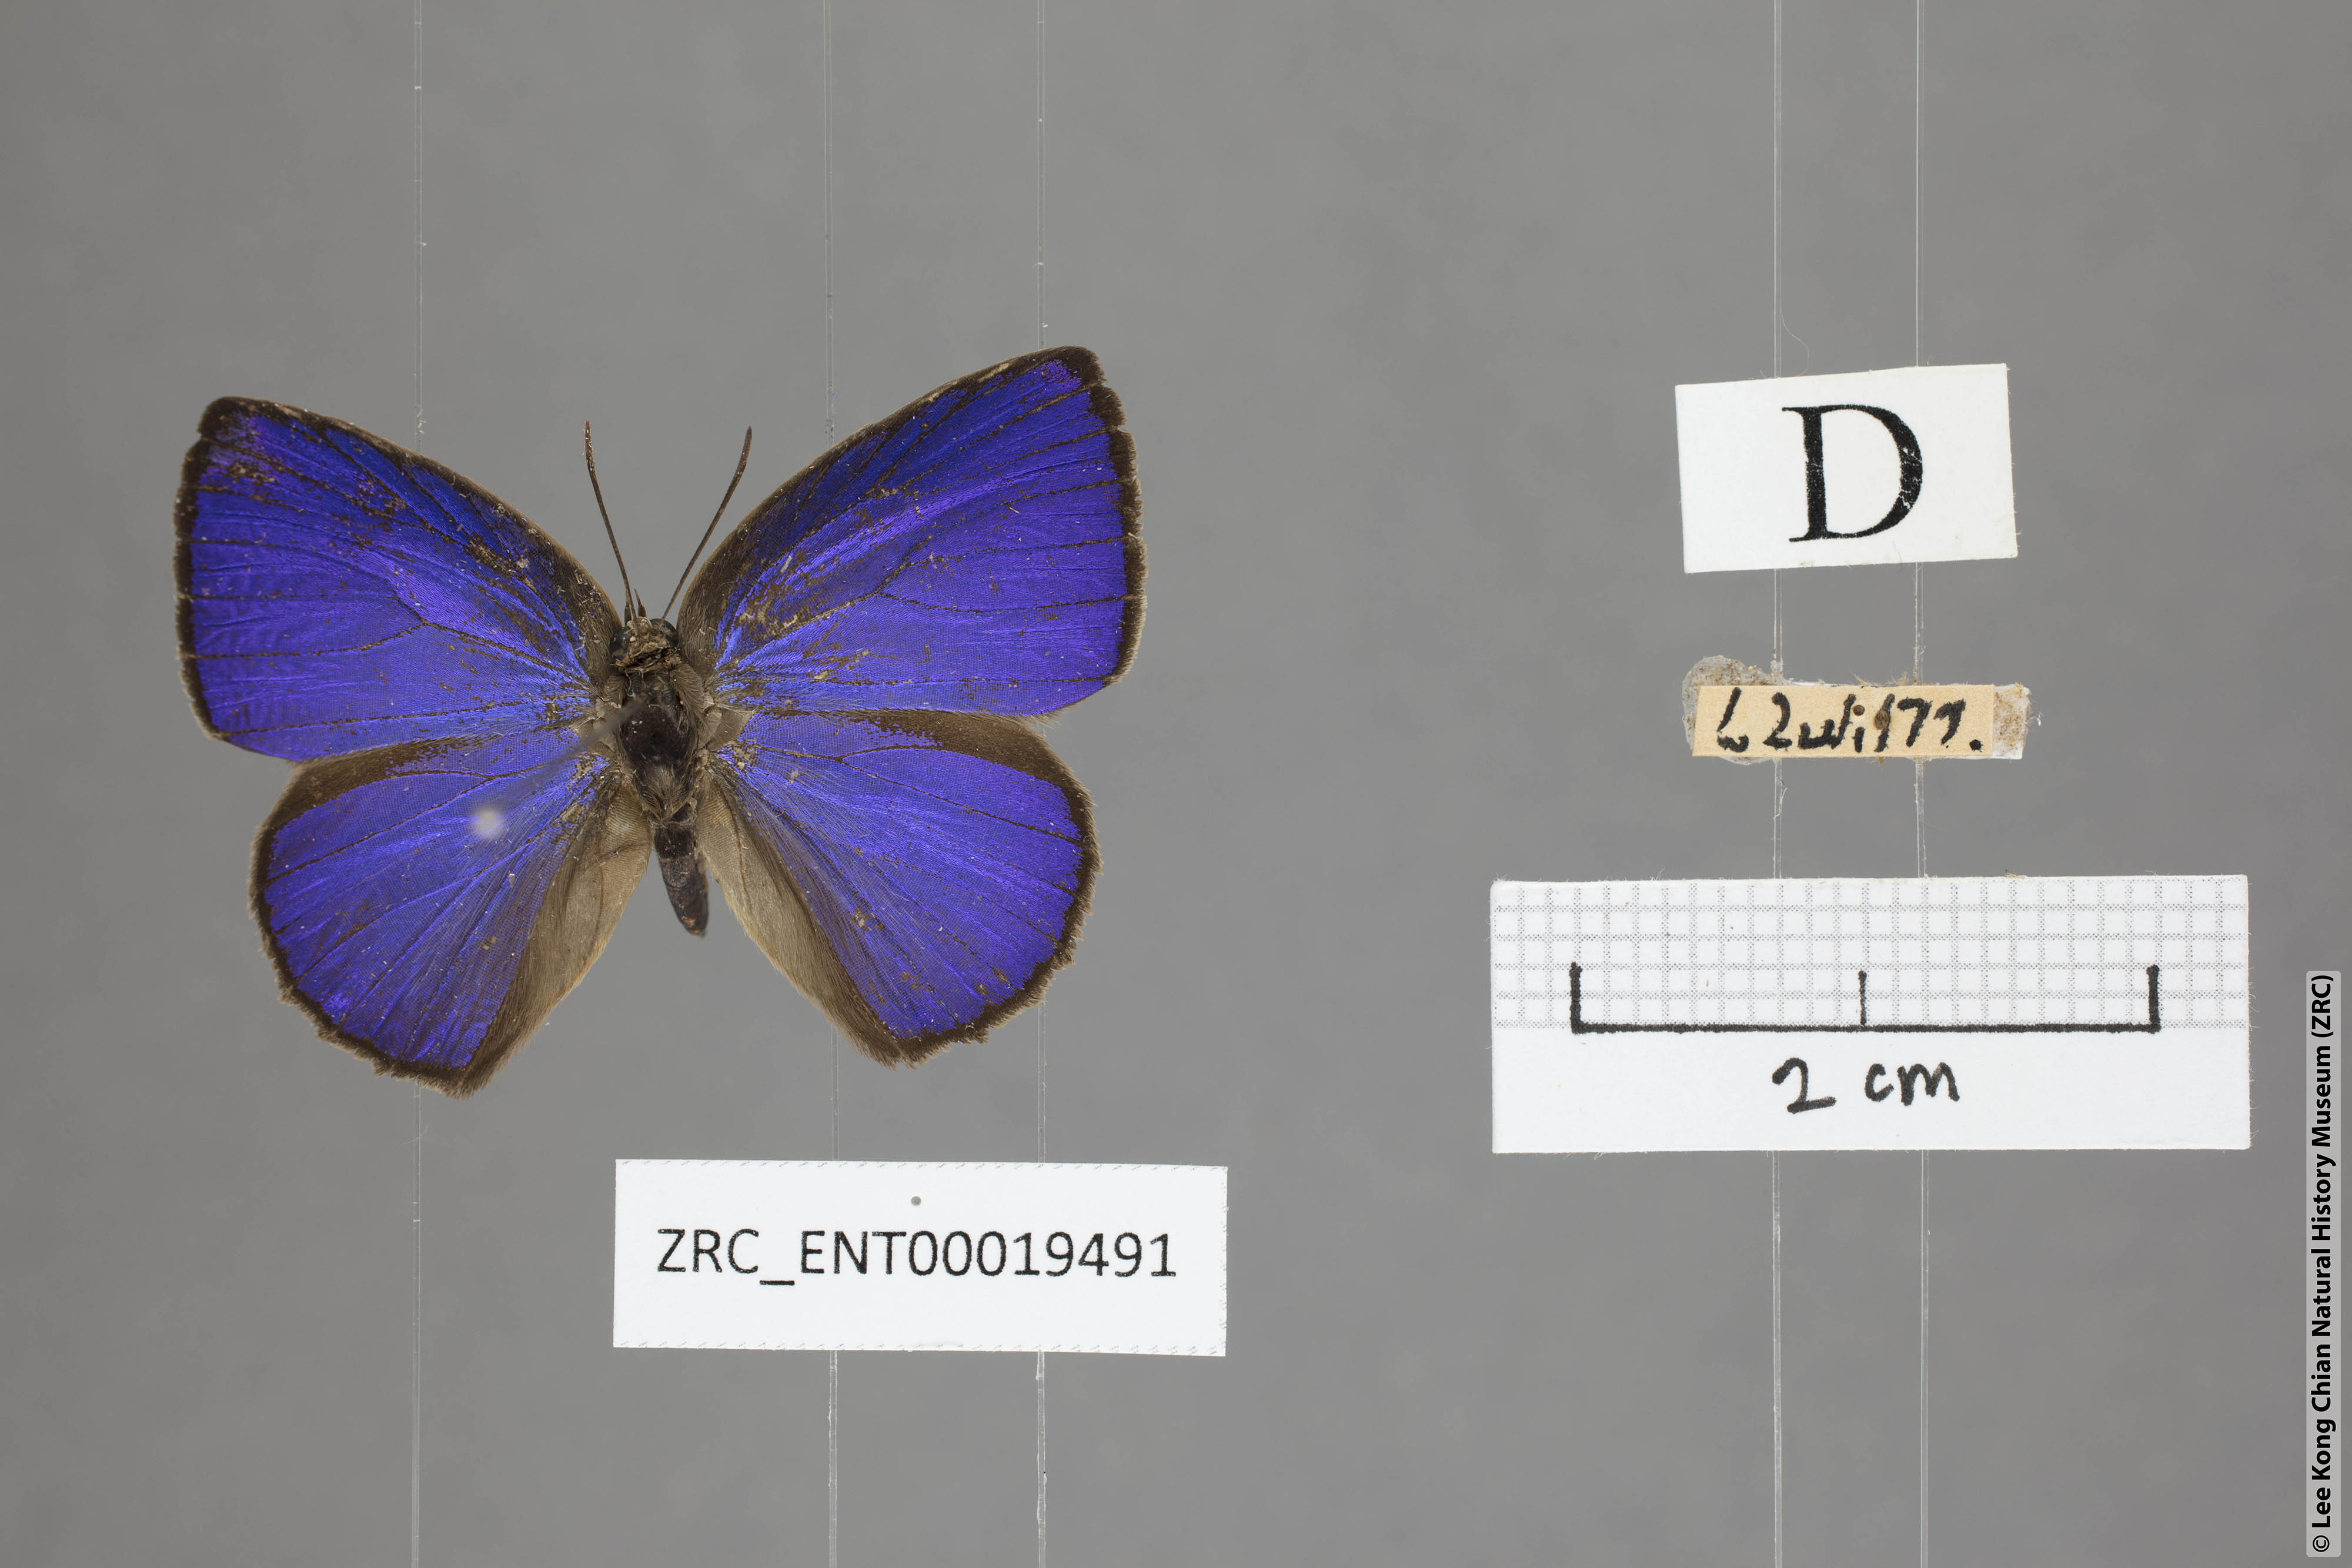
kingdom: Animalia
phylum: Arthropoda
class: Insecta
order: Lepidoptera
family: Lycaenidae
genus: Arhopala
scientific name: Arhopala fulla
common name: Spotless oakblue
